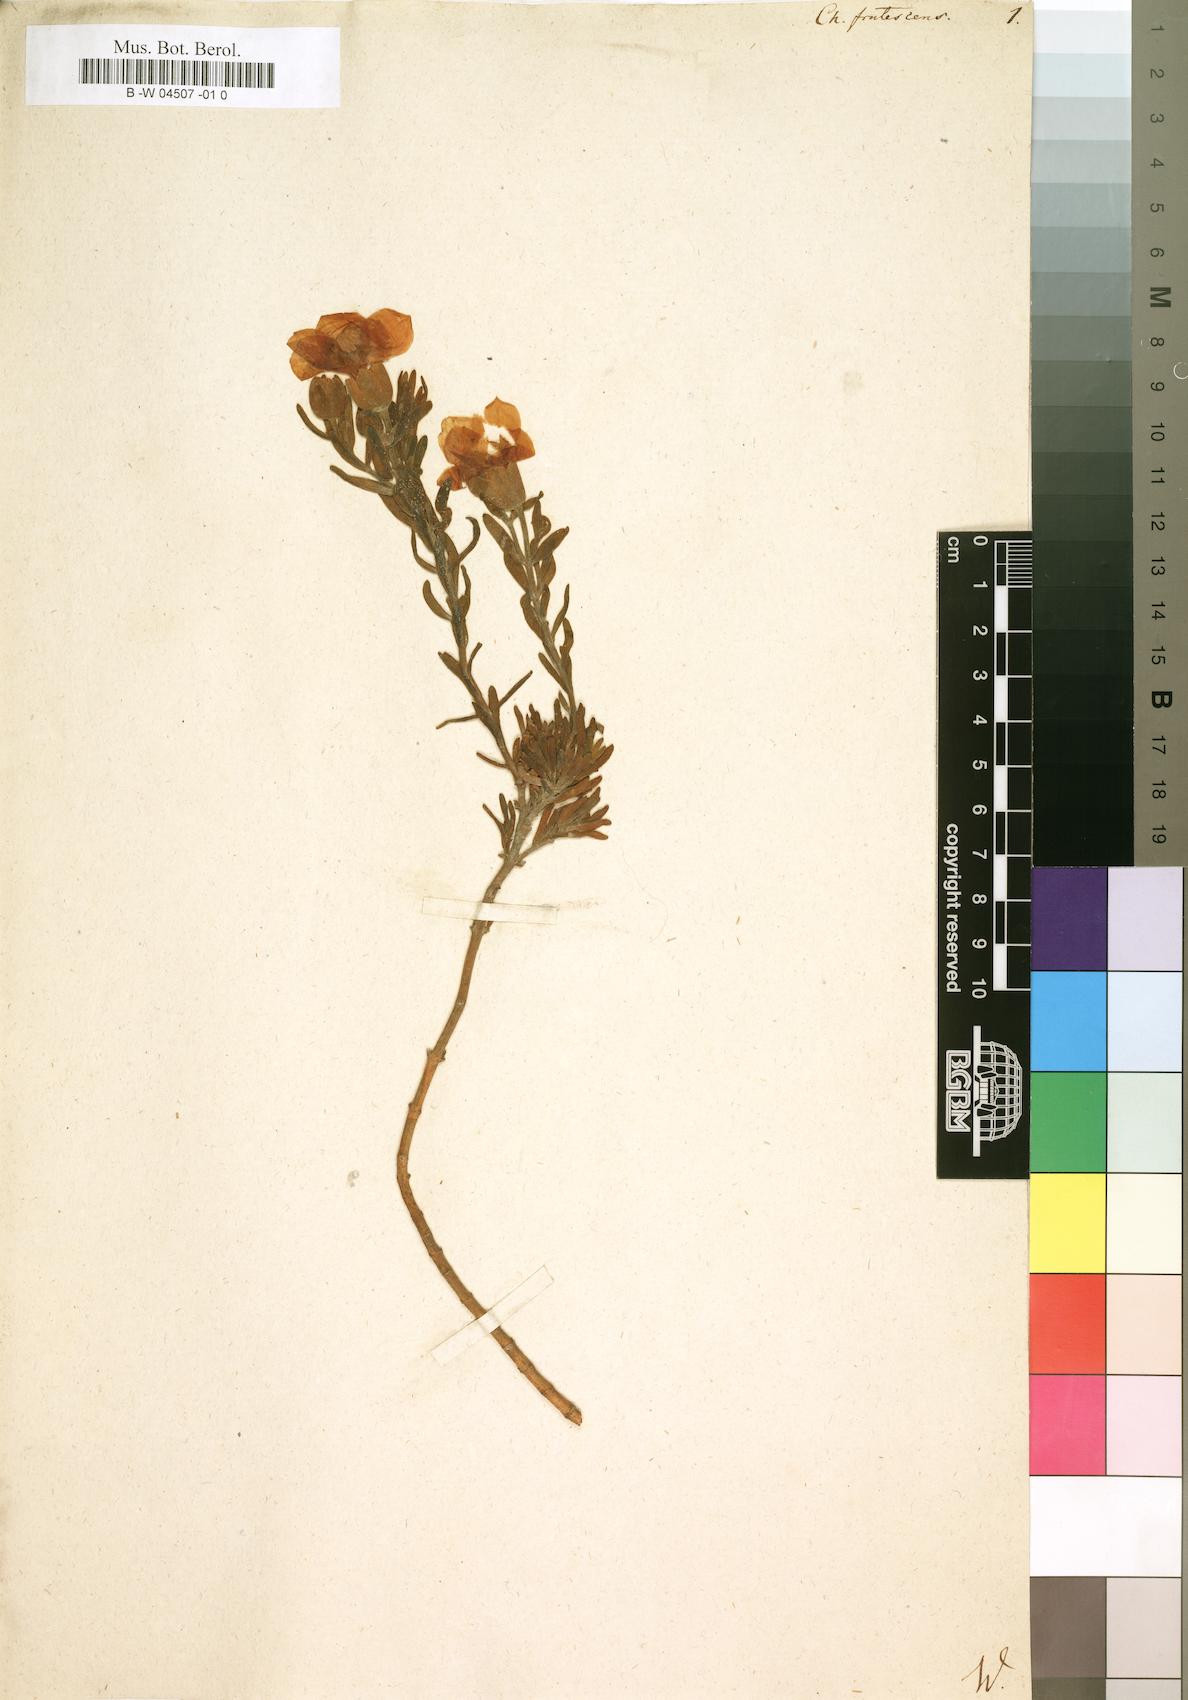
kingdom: Plantae
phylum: Tracheophyta
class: Magnoliopsida
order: Gentianales
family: Gentianaceae
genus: Orphium
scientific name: Orphium frutescens
